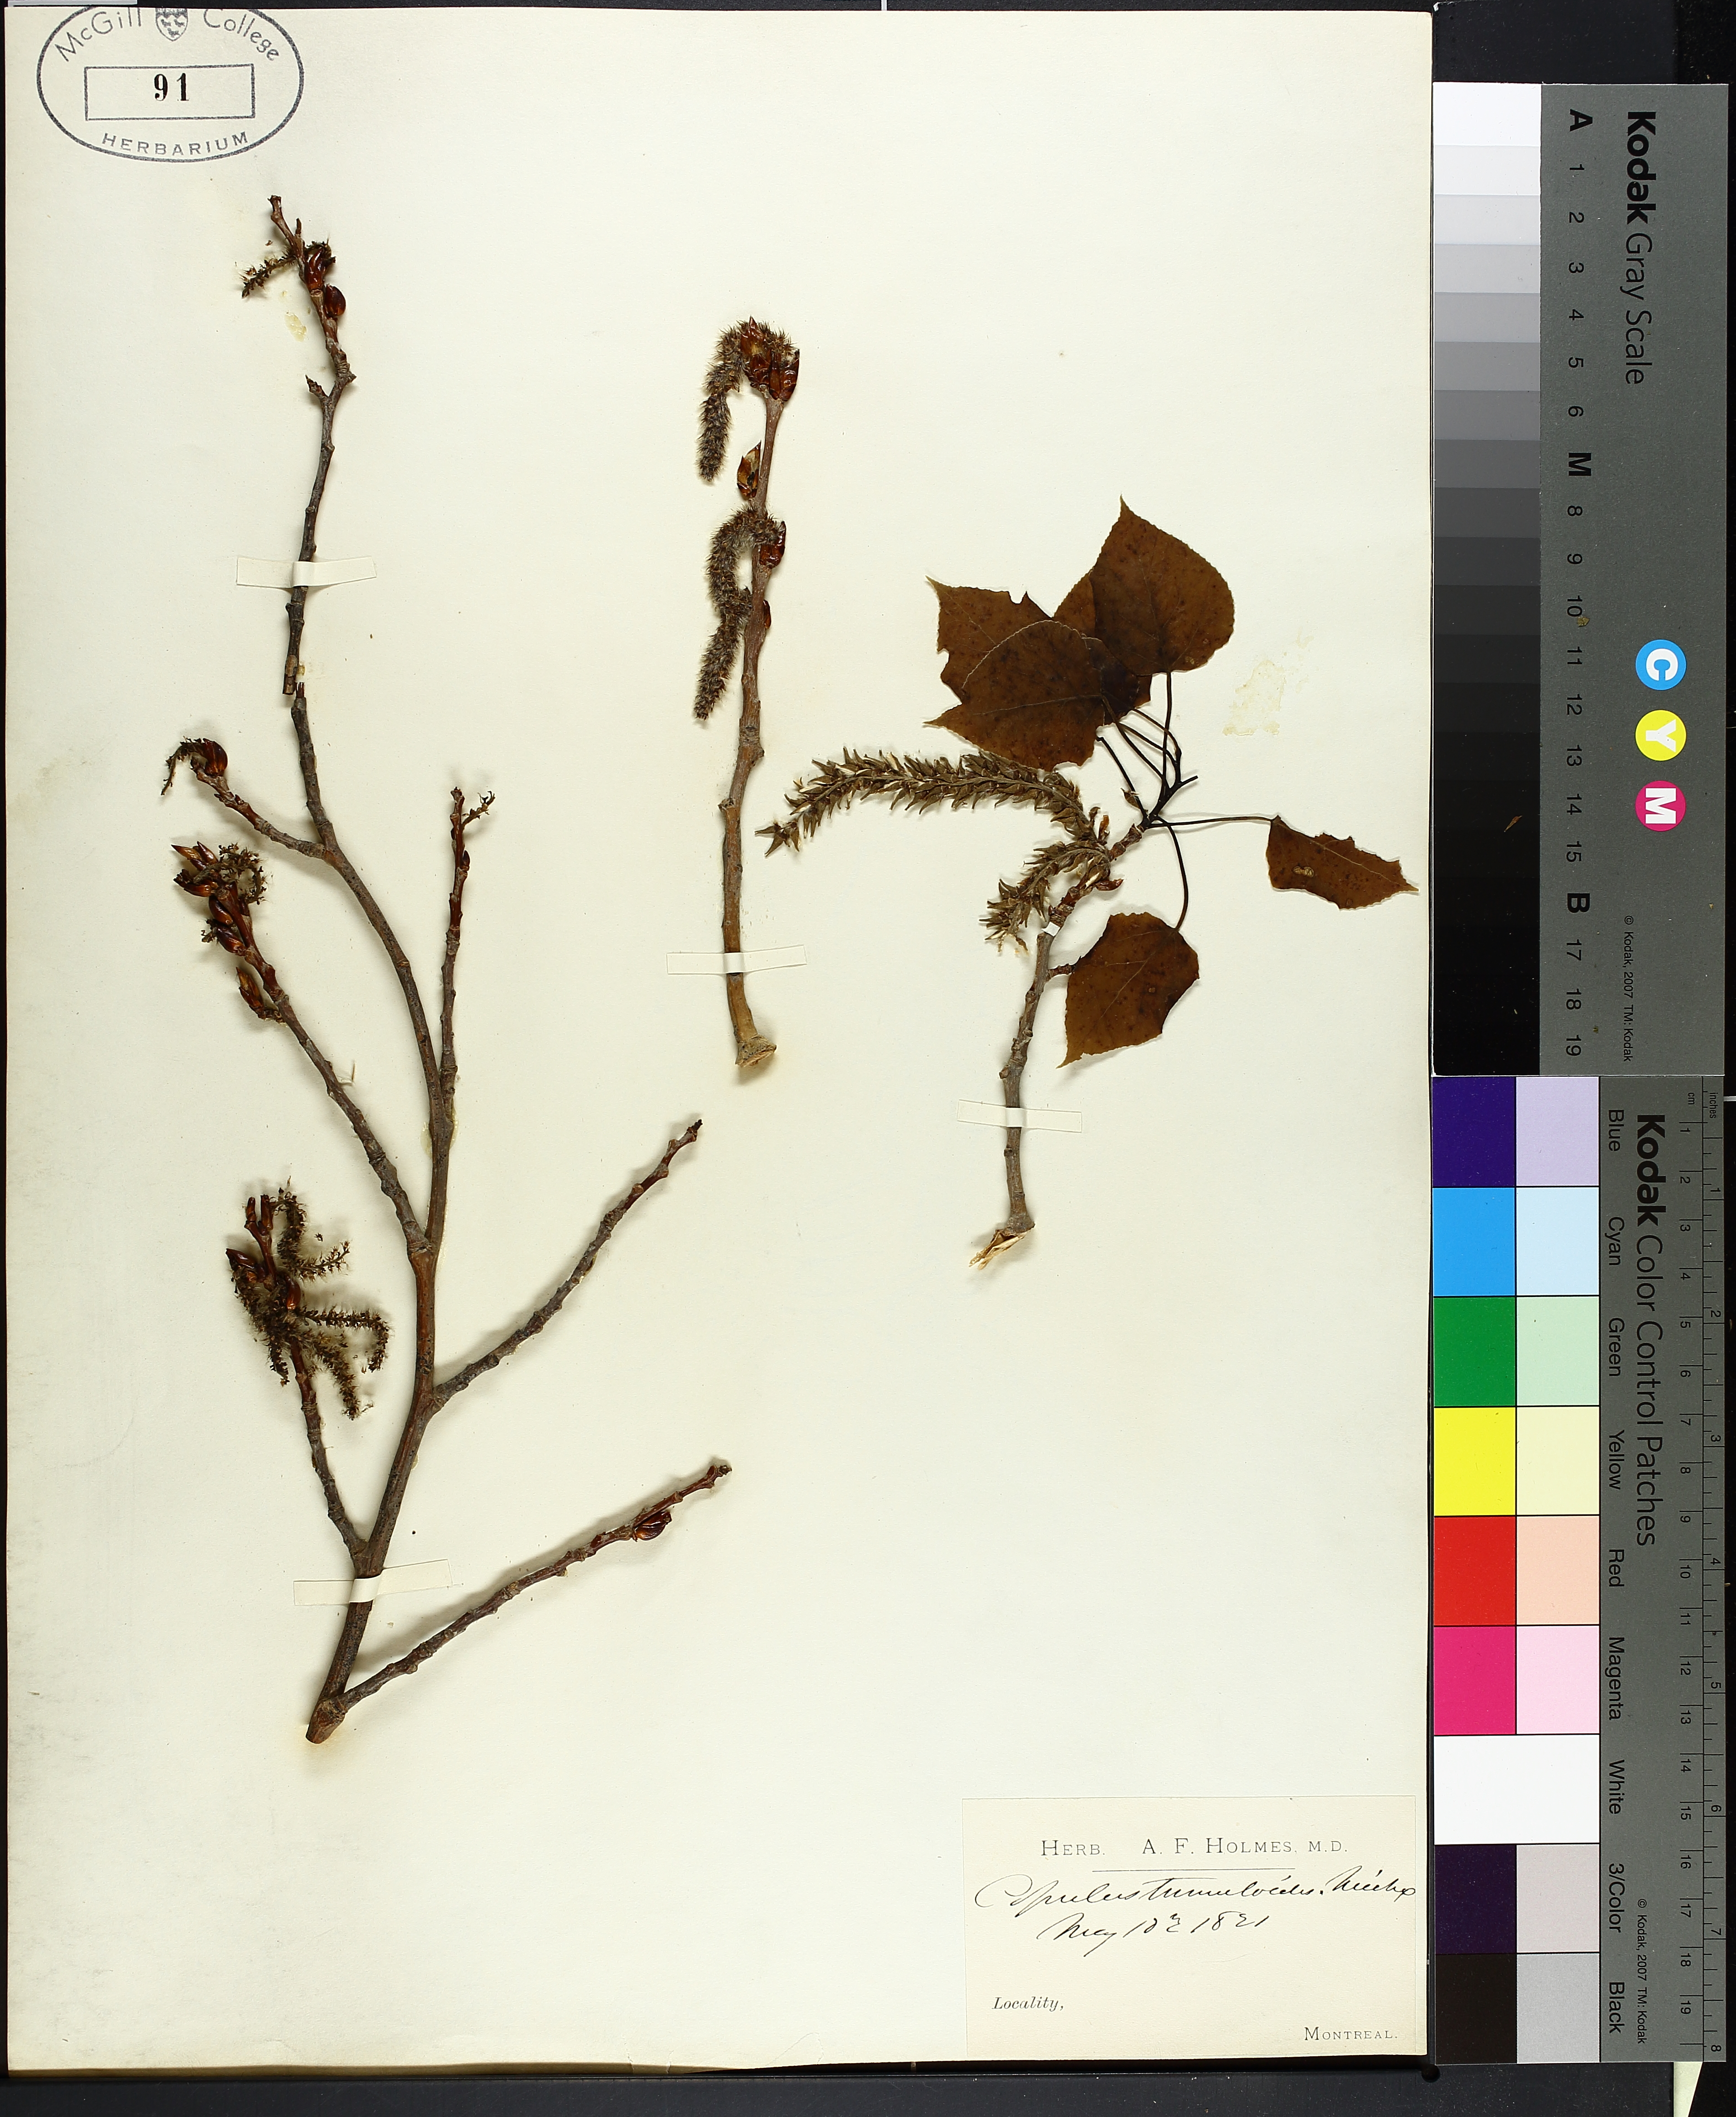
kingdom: Plantae
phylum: Tracheophyta
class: Magnoliopsida
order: Malpighiales
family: Salicaceae
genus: Populus
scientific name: Populus tremuloides
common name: Quaking aspen
